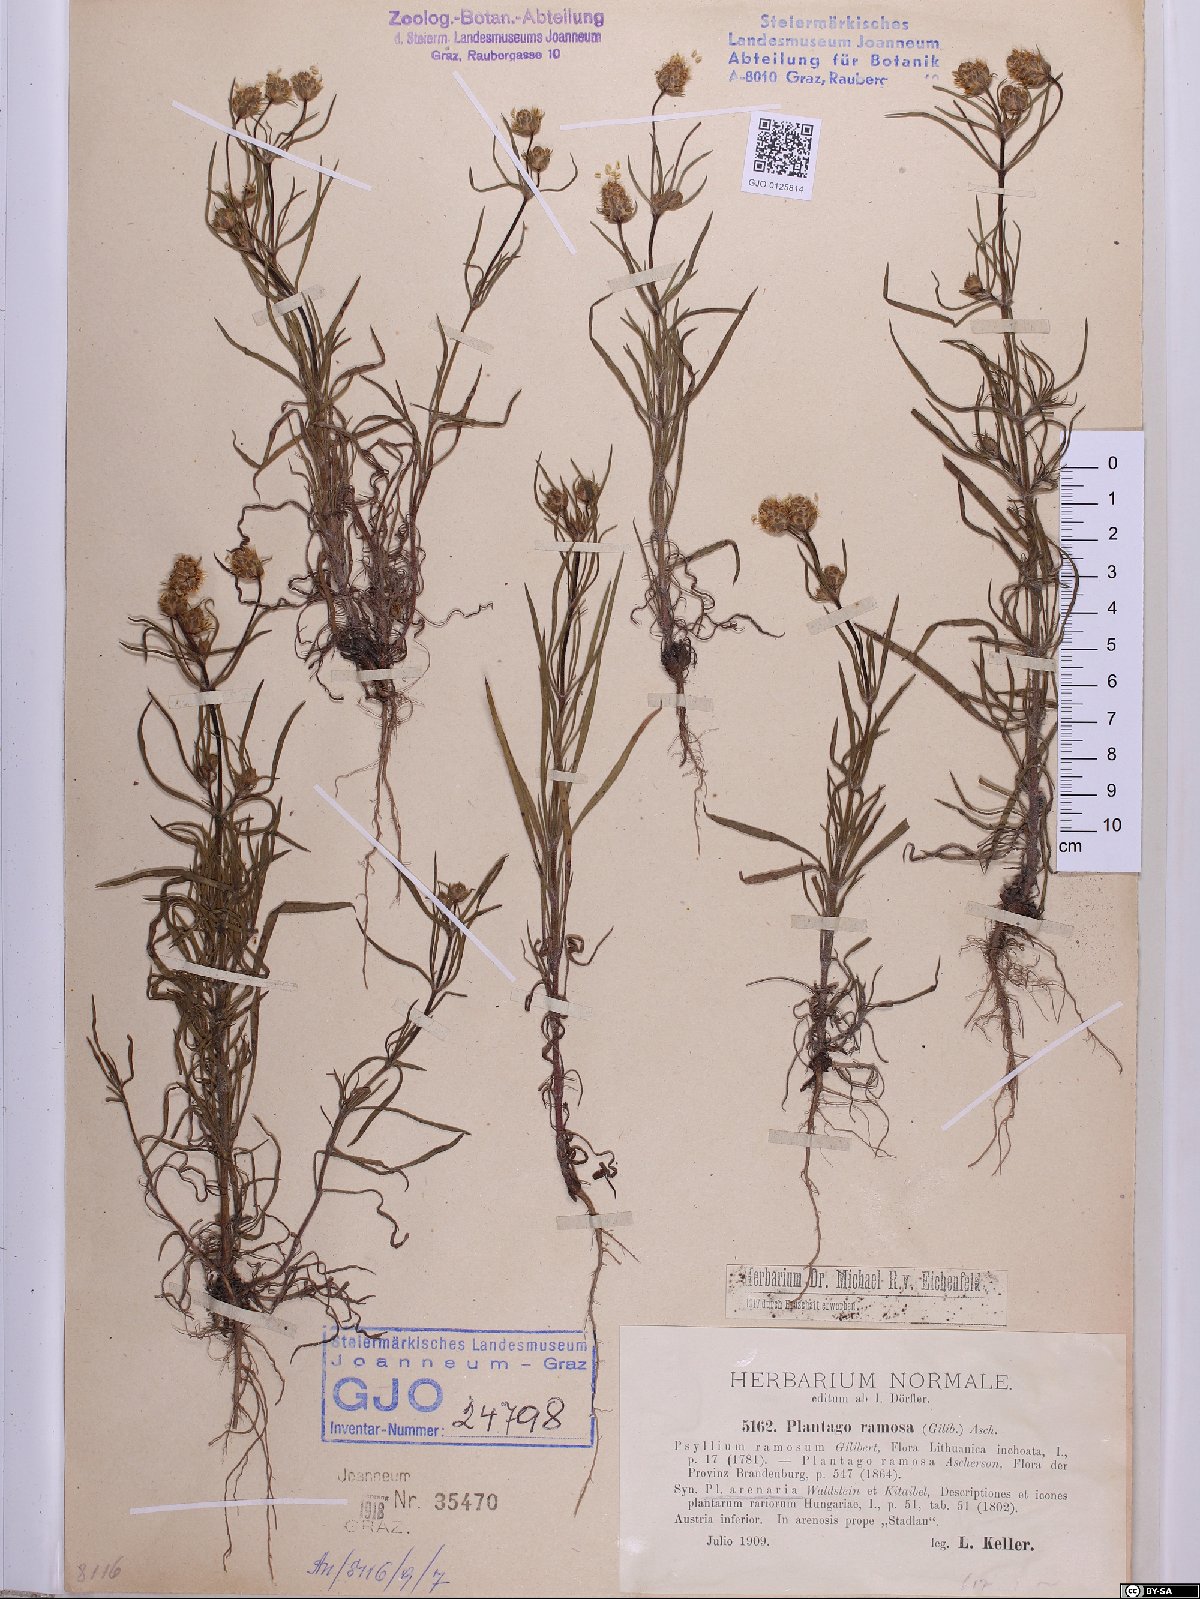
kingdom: Plantae
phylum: Tracheophyta
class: Magnoliopsida
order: Lamiales
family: Plantaginaceae
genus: Plantago
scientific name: Plantago arenaria
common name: Branched plantain
